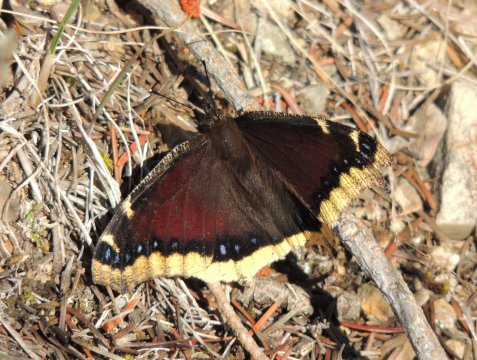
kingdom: Animalia
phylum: Arthropoda
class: Insecta
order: Lepidoptera
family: Nymphalidae
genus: Nymphalis
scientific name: Nymphalis antiopa
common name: Mourning Cloak
